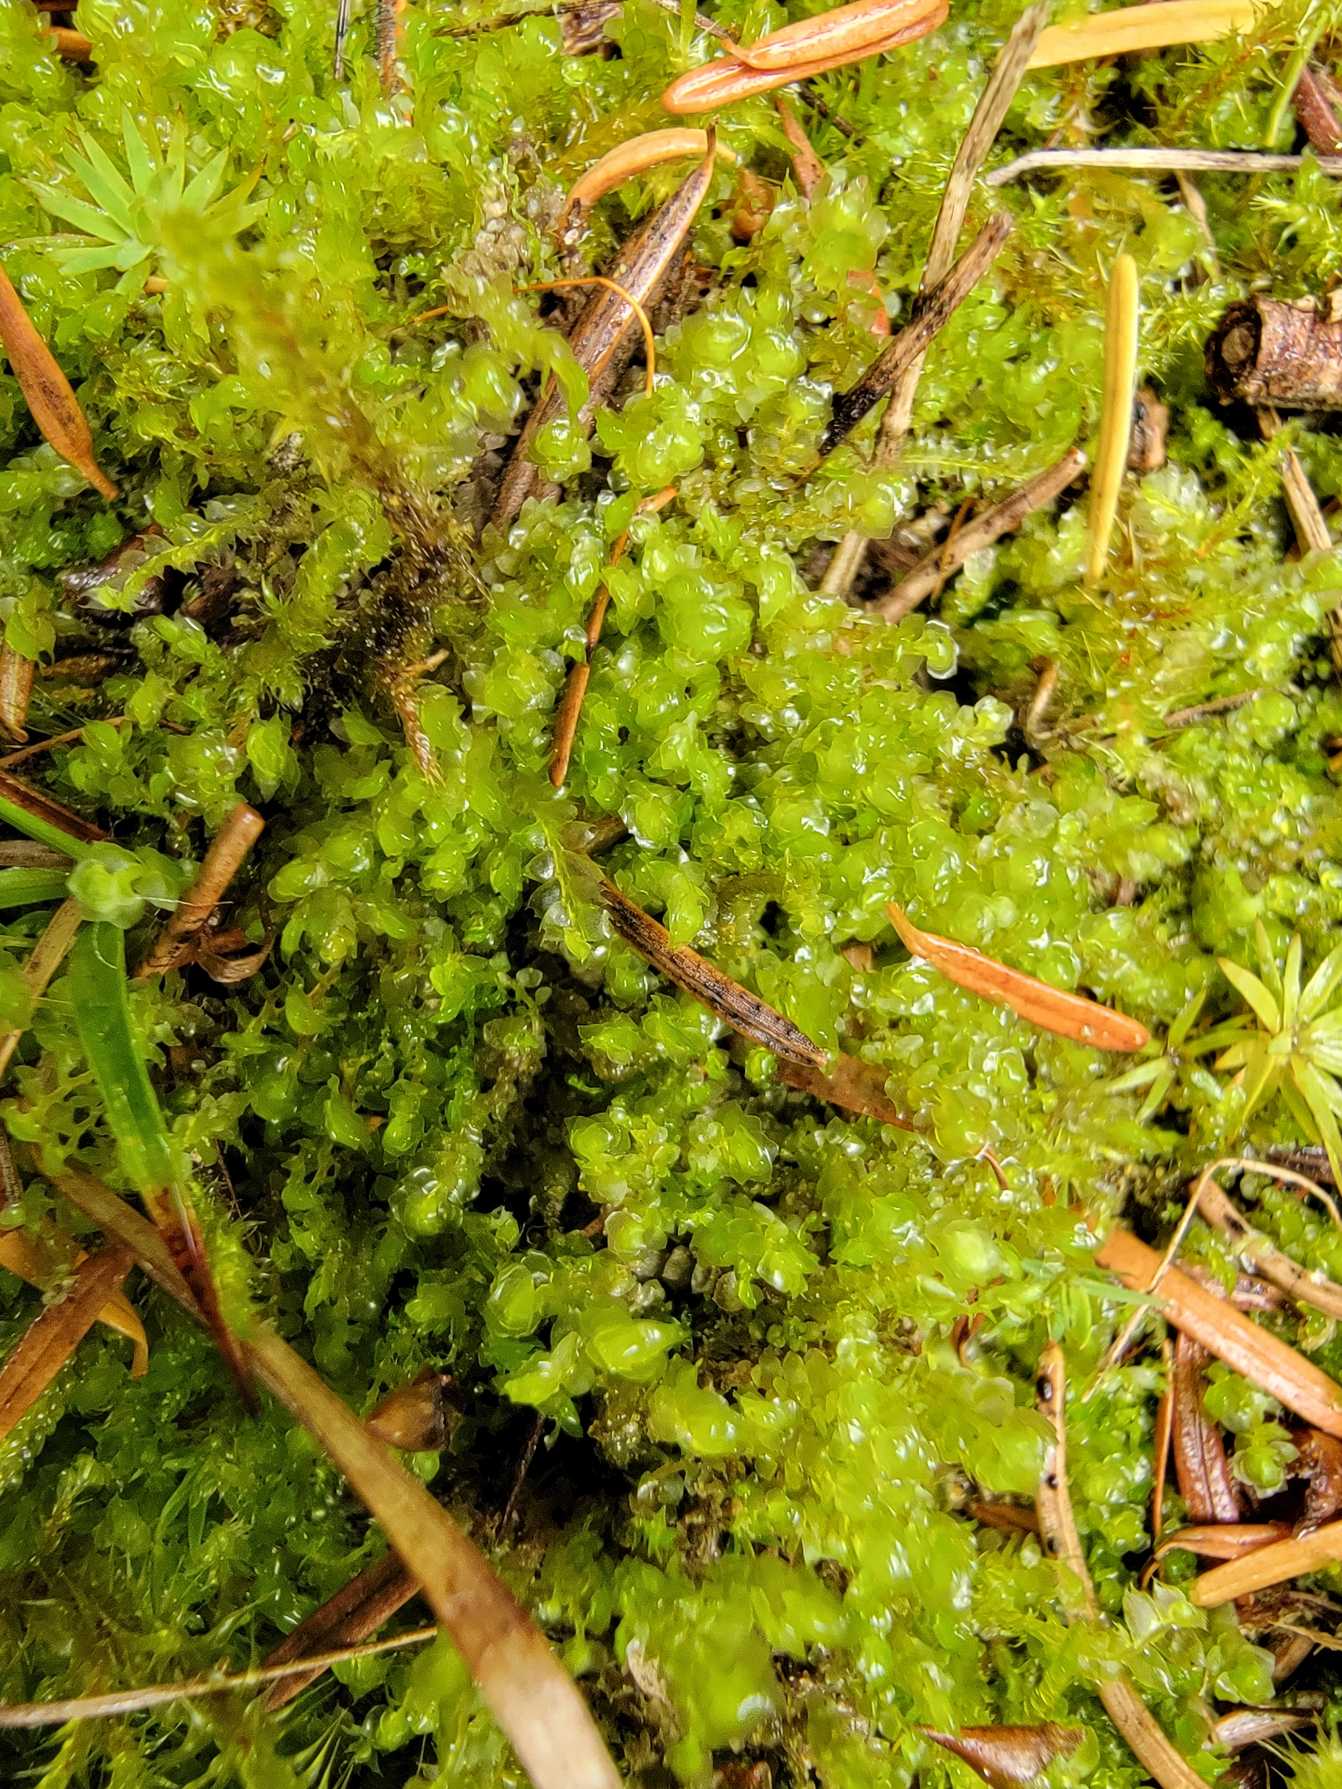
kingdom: Plantae
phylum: Marchantiophyta
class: Jungermanniopsida
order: Jungermanniales
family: Scapaniaceae
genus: Scapania
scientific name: Scapania irrigua
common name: Kær-tveblad
